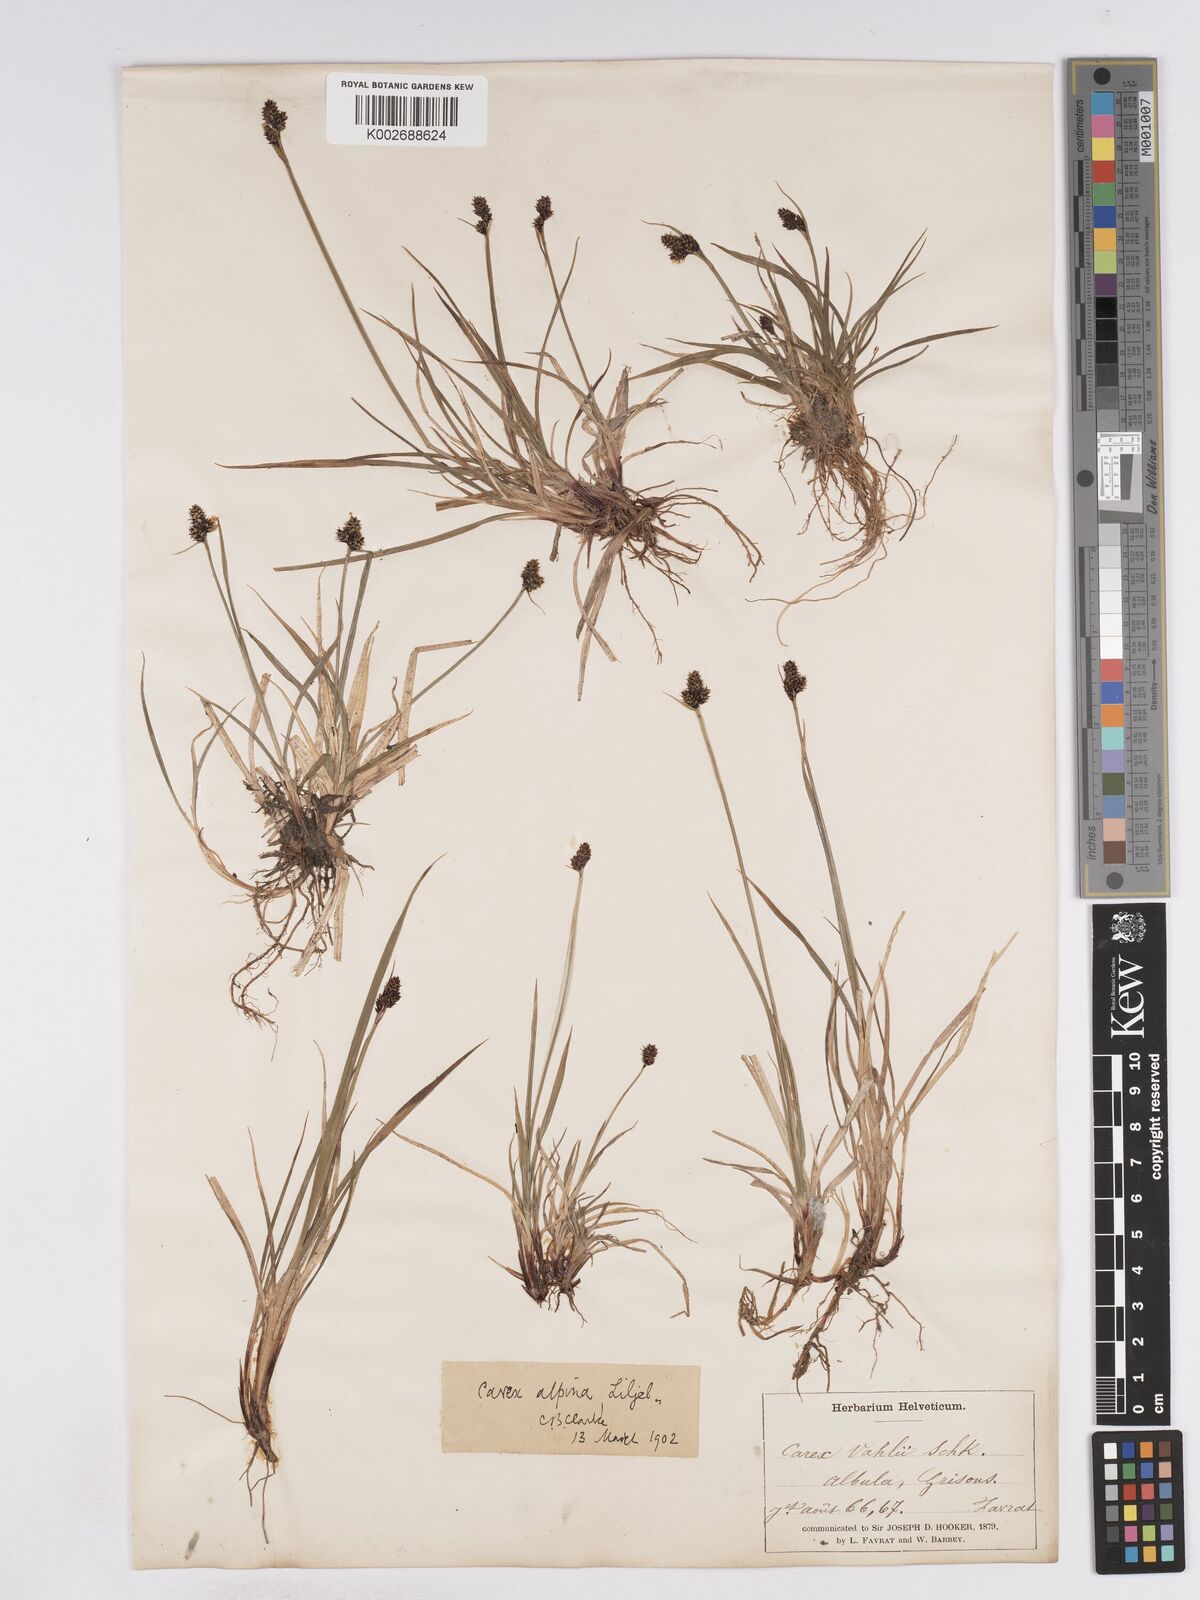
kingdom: Plantae
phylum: Tracheophyta
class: Liliopsida
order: Poales
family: Cyperaceae
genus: Carex
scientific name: Carex norvegica
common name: Close-headed alpine-sedge
